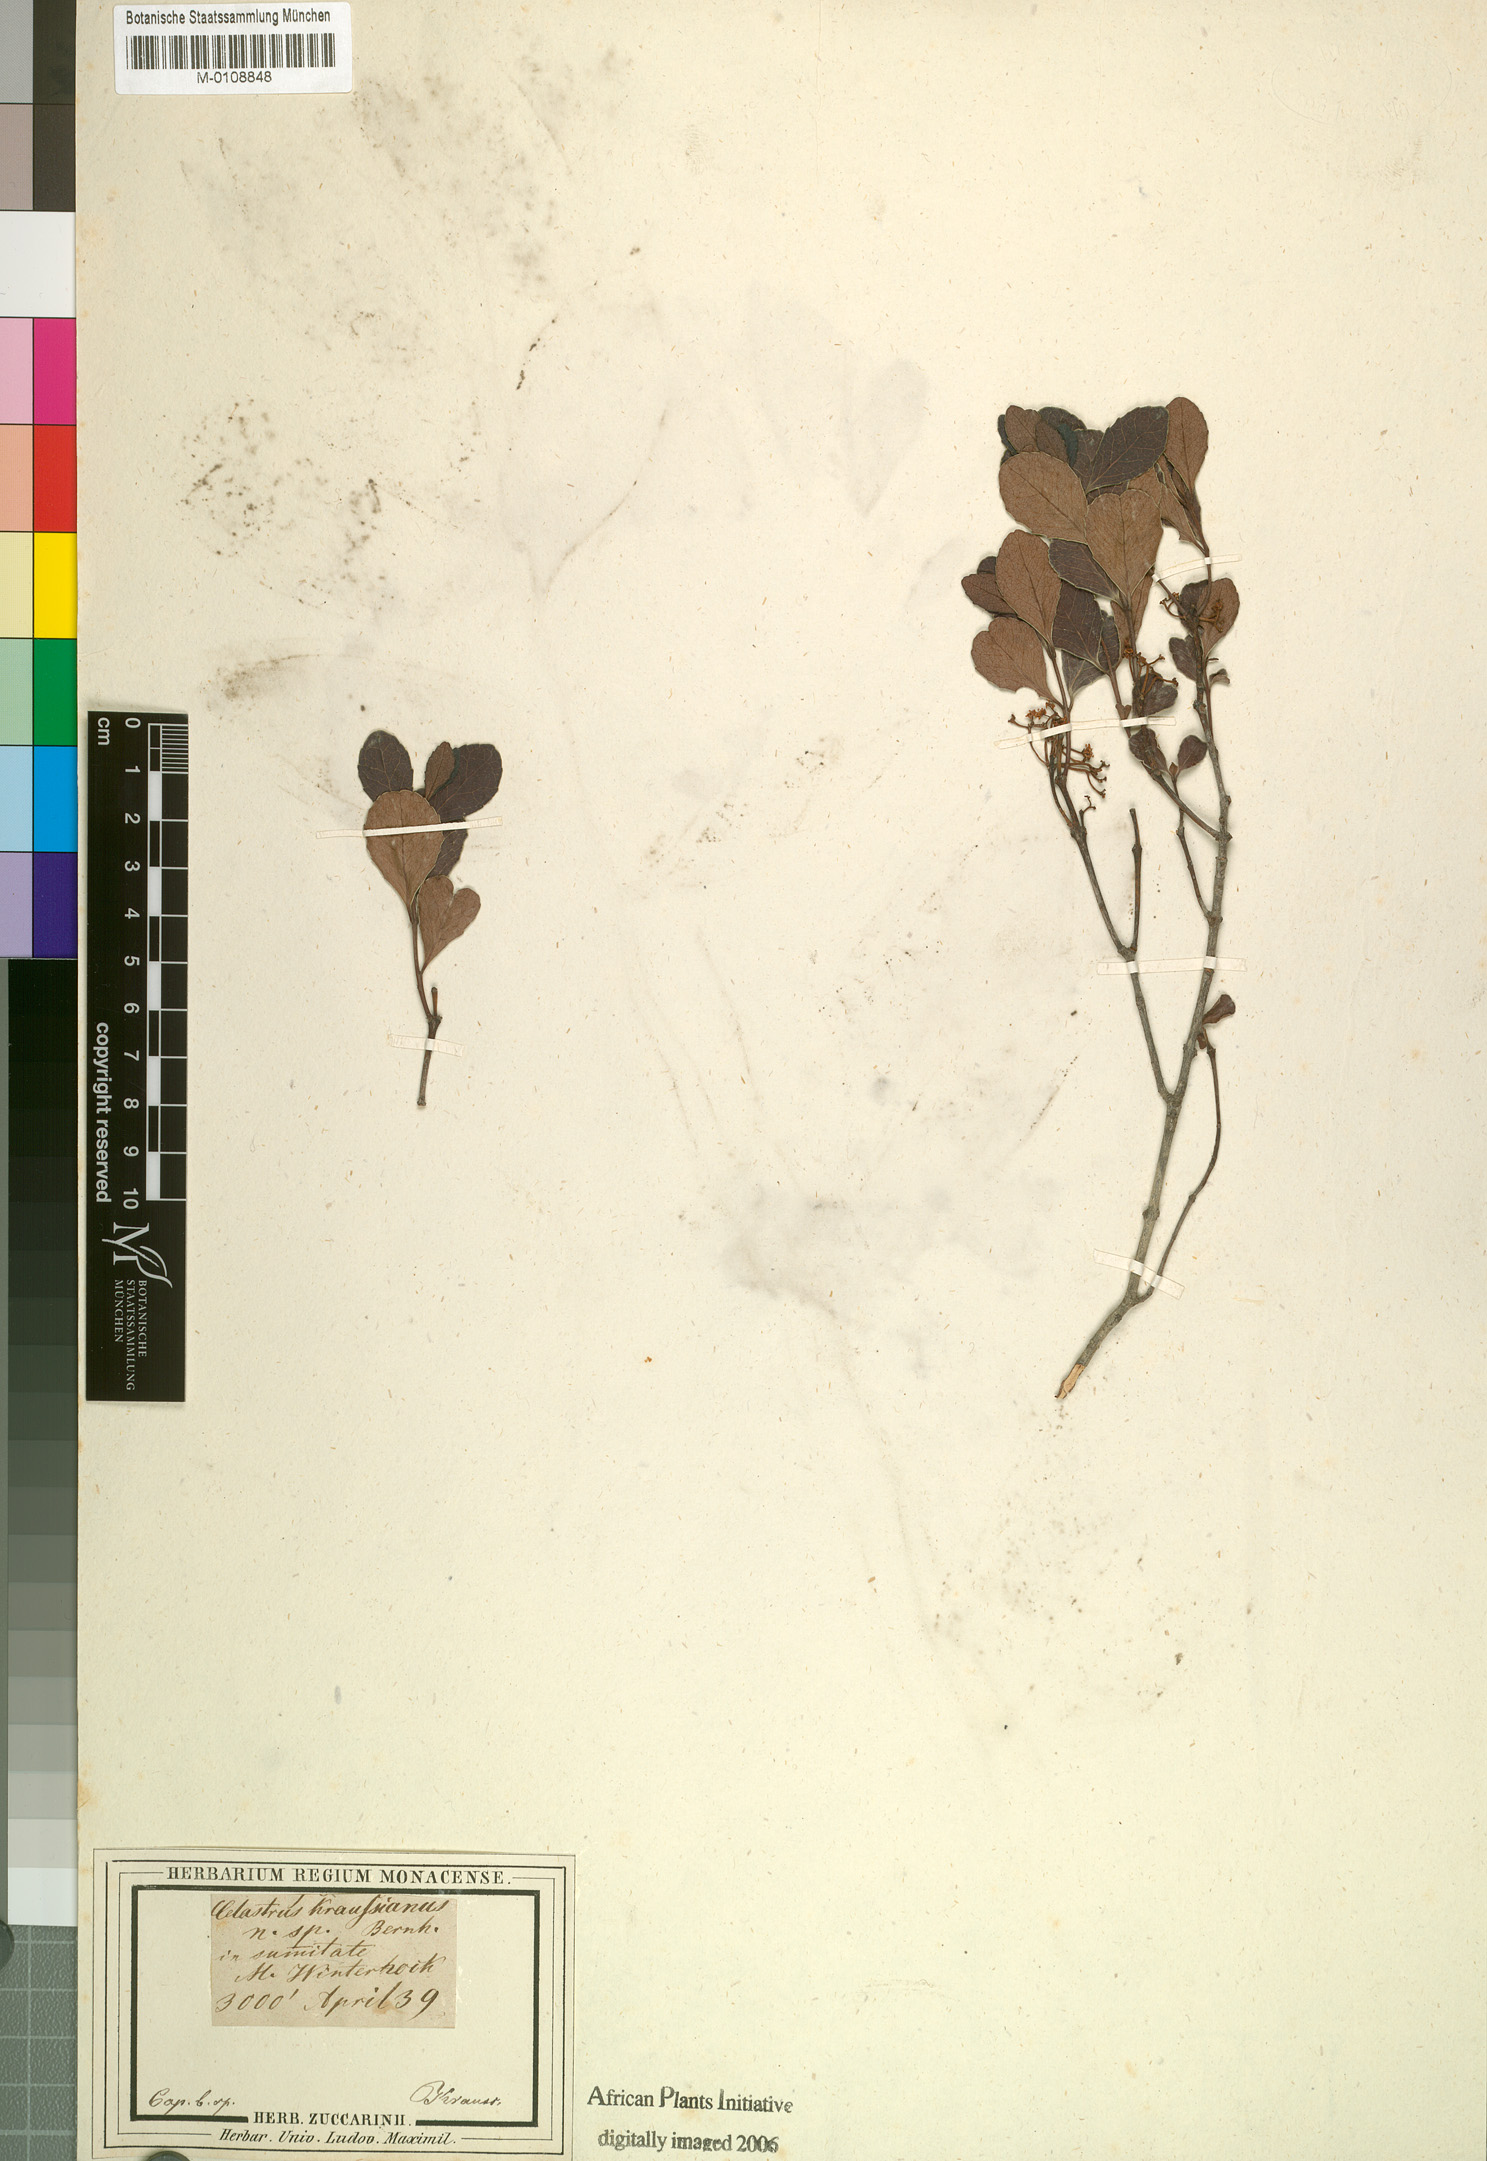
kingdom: Plantae
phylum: Tracheophyta
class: Magnoliopsida
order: Celastrales
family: Celastraceae
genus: Celastrus
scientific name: Celastrus
